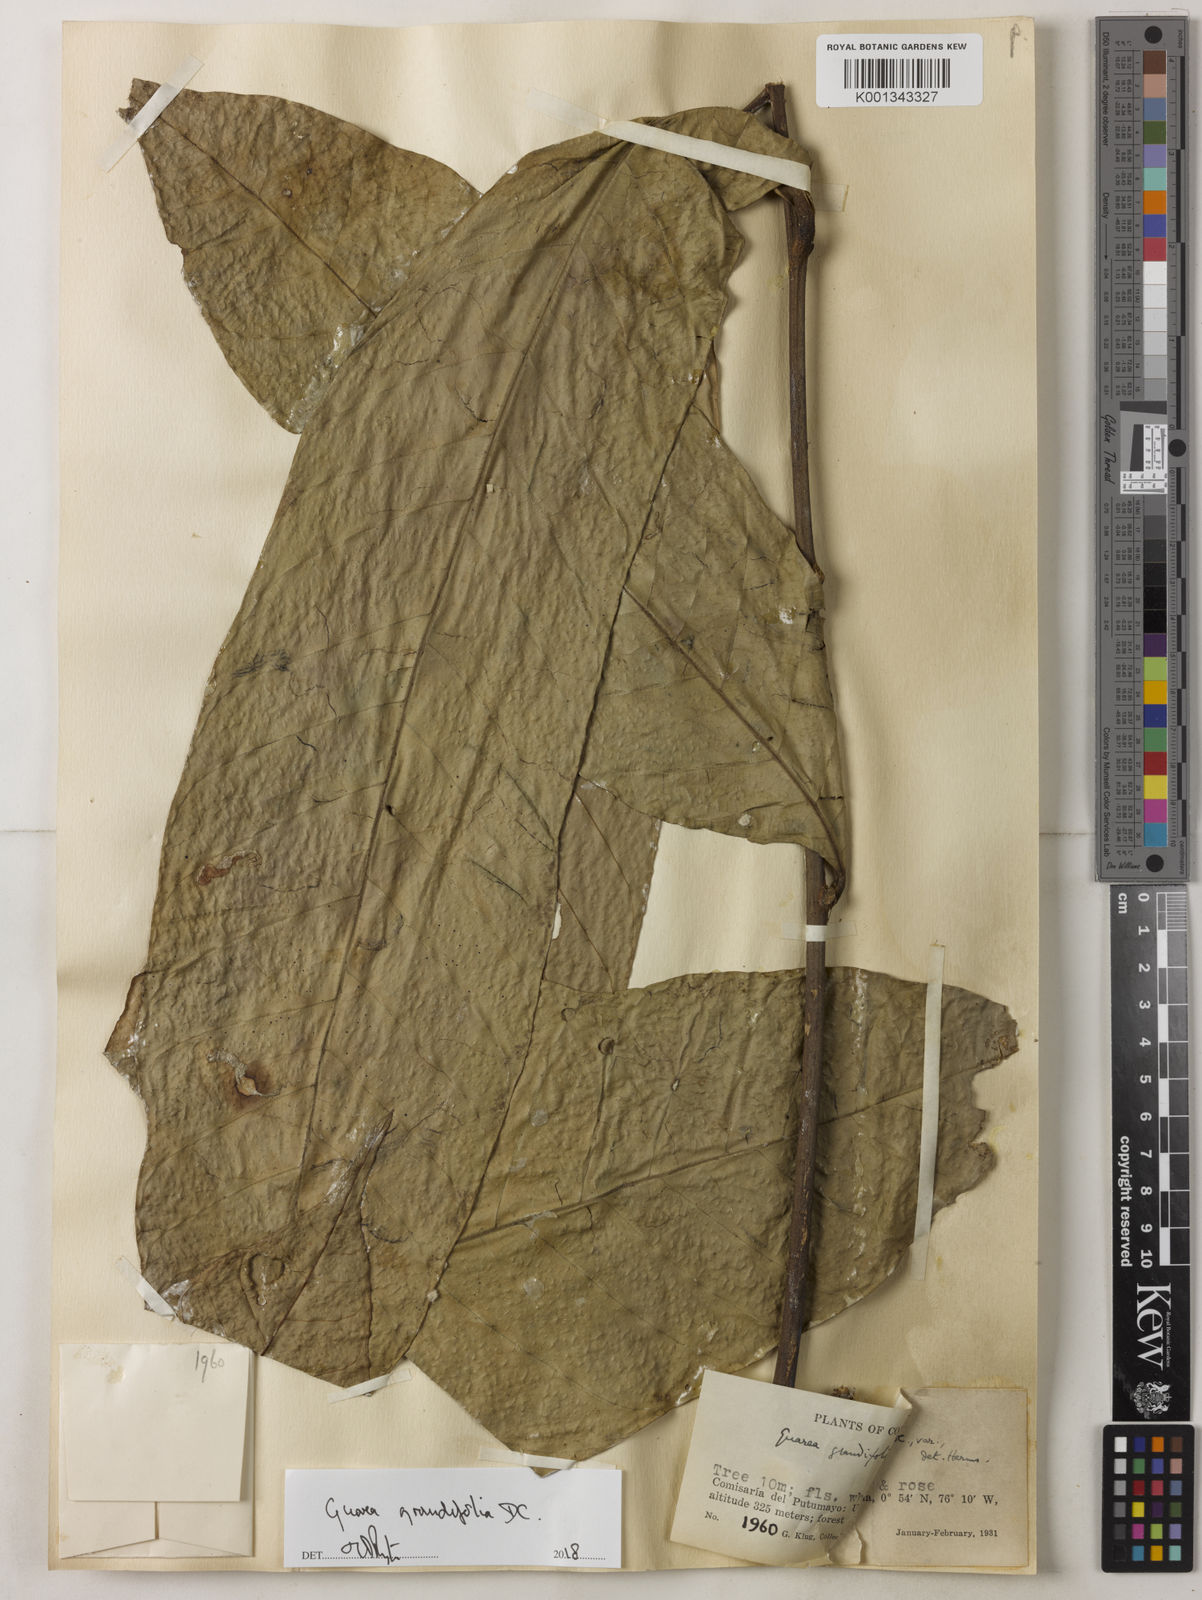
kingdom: Plantae
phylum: Tracheophyta
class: Magnoliopsida
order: Sapindales
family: Meliaceae
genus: Guarea
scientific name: Guarea
